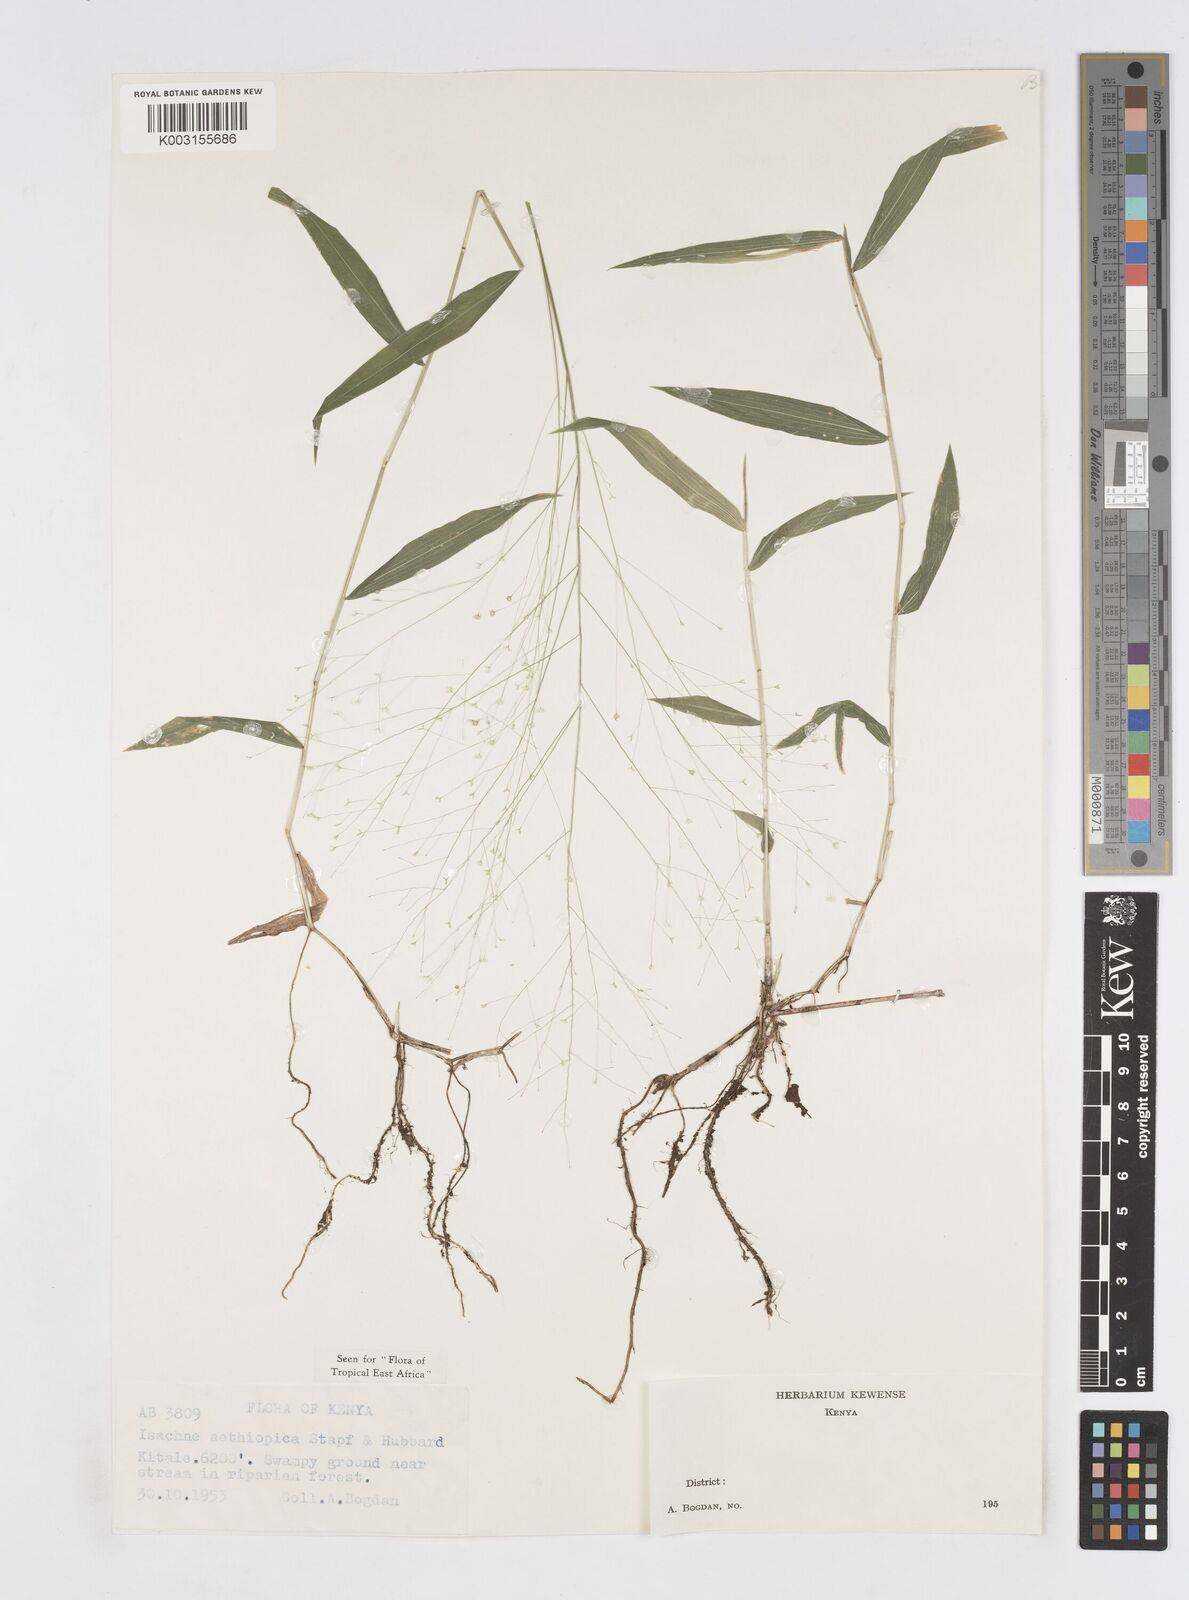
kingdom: Plantae
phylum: Tracheophyta
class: Liliopsida
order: Poales
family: Poaceae
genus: Isachne
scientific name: Isachne mauritiana
